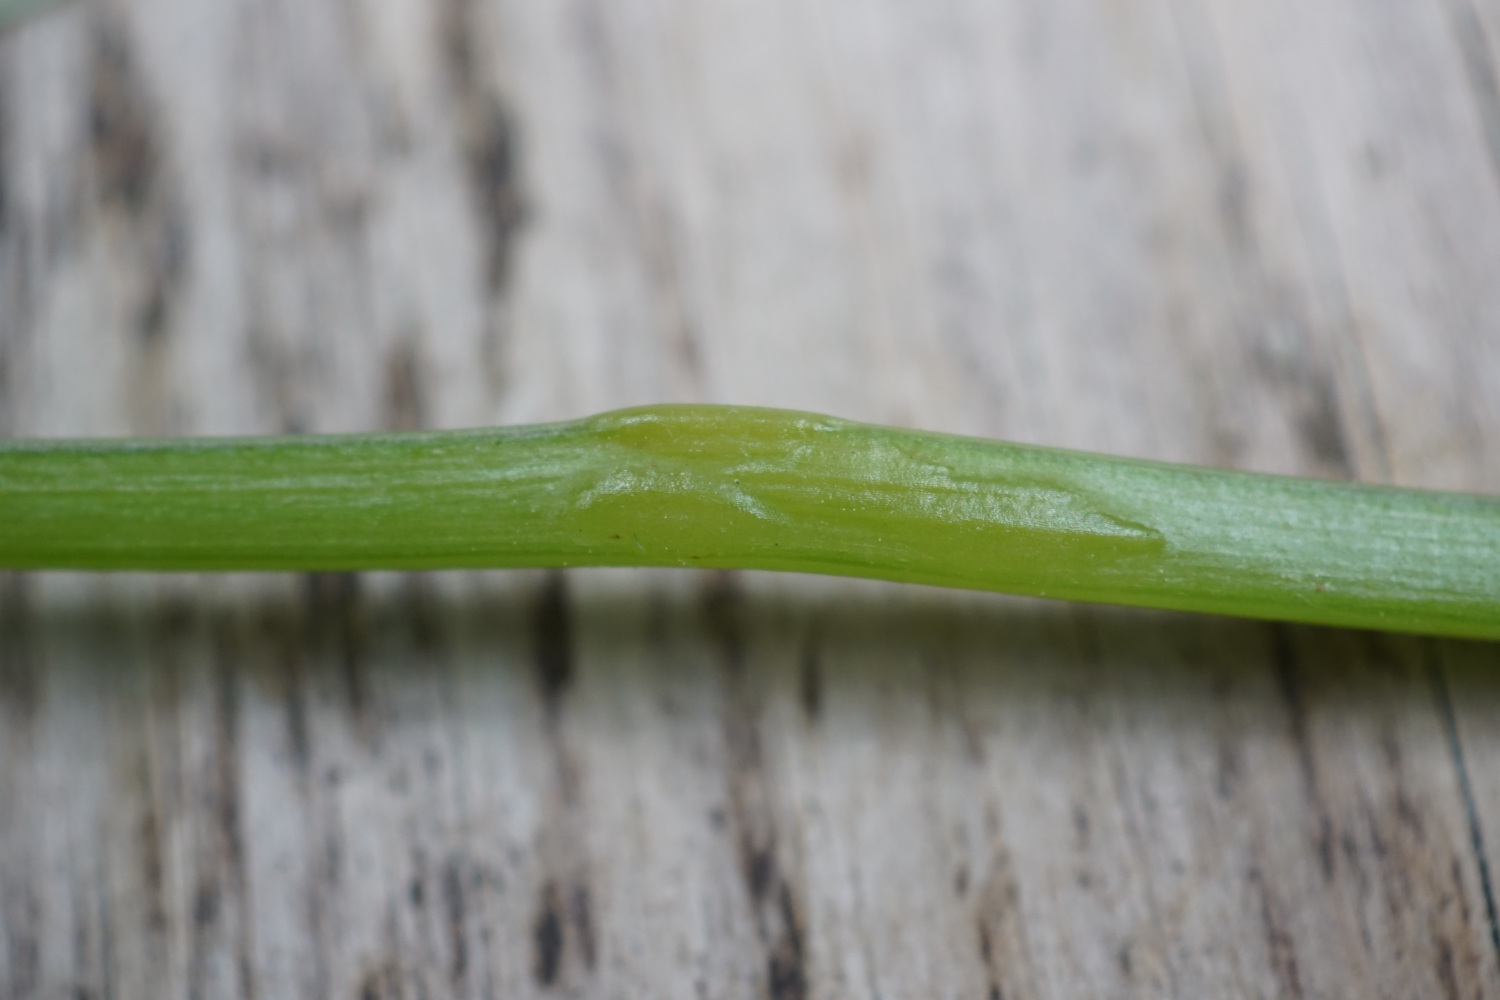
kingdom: Fungi
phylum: Ascomycota
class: Taphrinomycetes
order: Taphrinales
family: Taphrinaceae
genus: Protomyces
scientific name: Protomyces macrosporus
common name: skvalderkål-vablesæk
